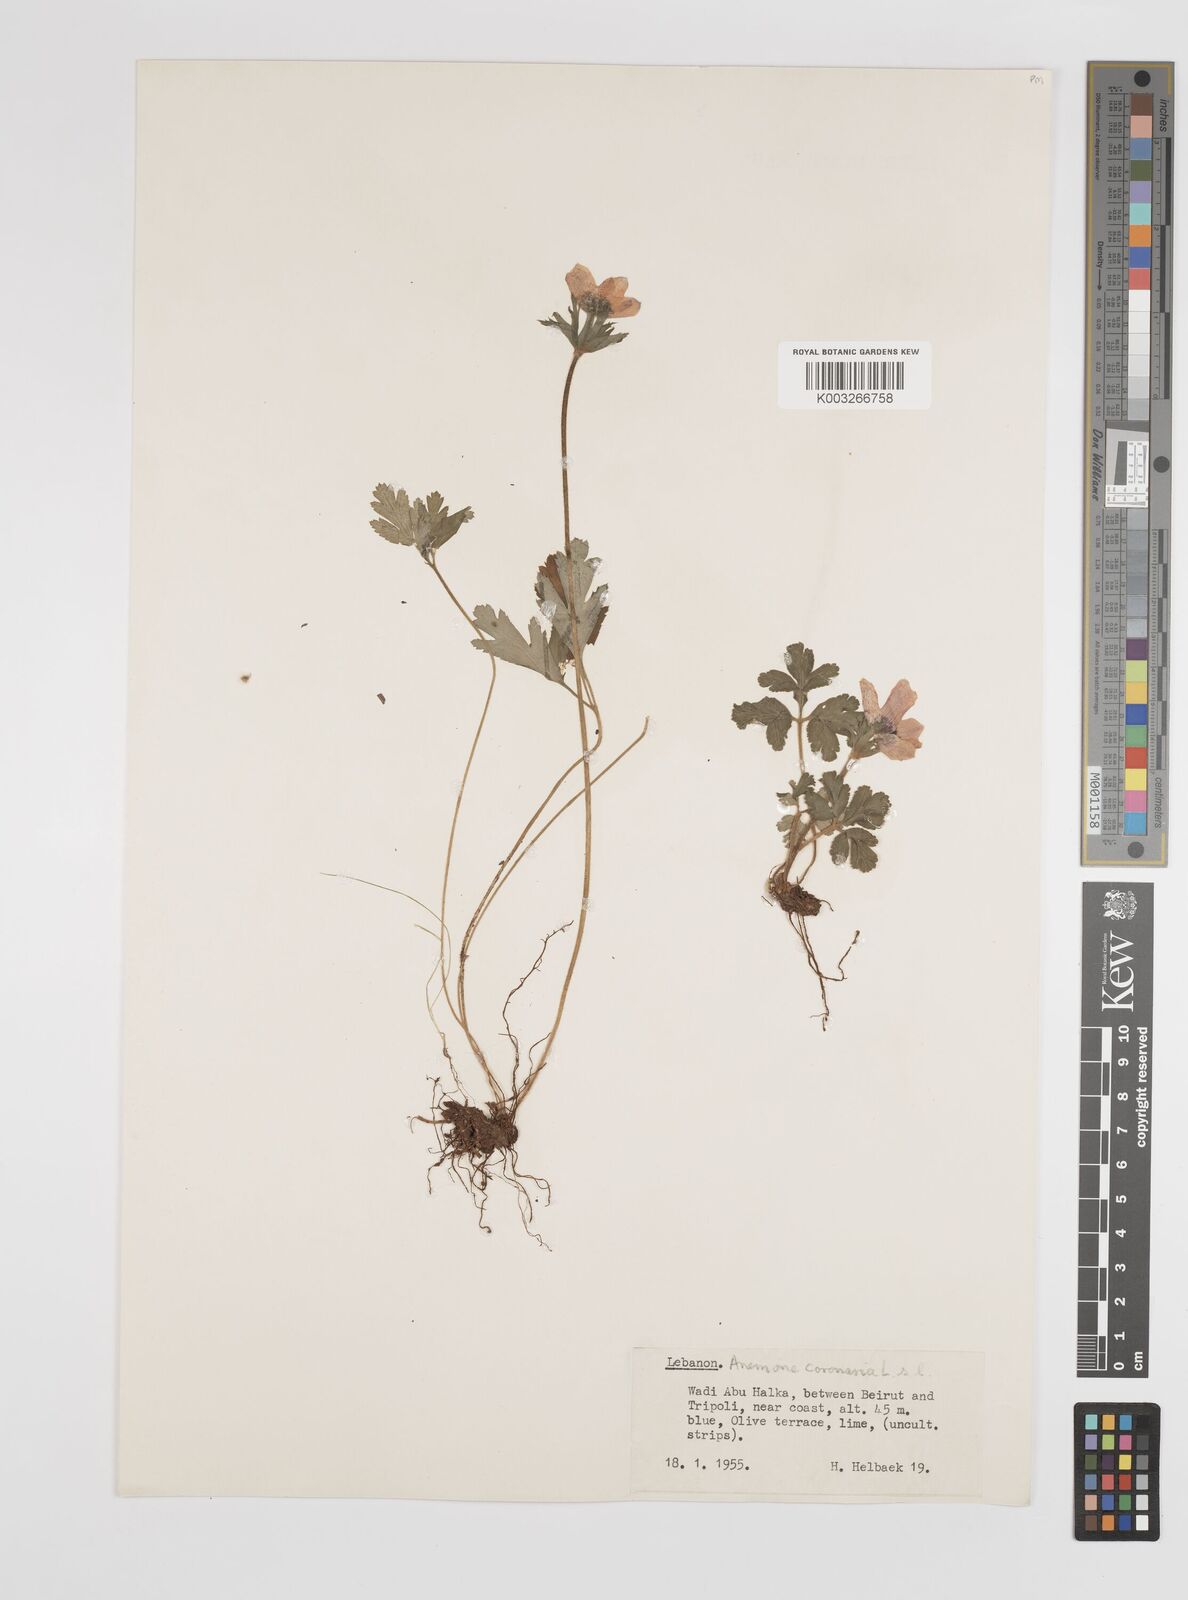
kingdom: Plantae
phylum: Tracheophyta
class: Magnoliopsida
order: Ranunculales
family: Ranunculaceae
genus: Anemone
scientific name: Anemone coronaria
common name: Poppy anemone
